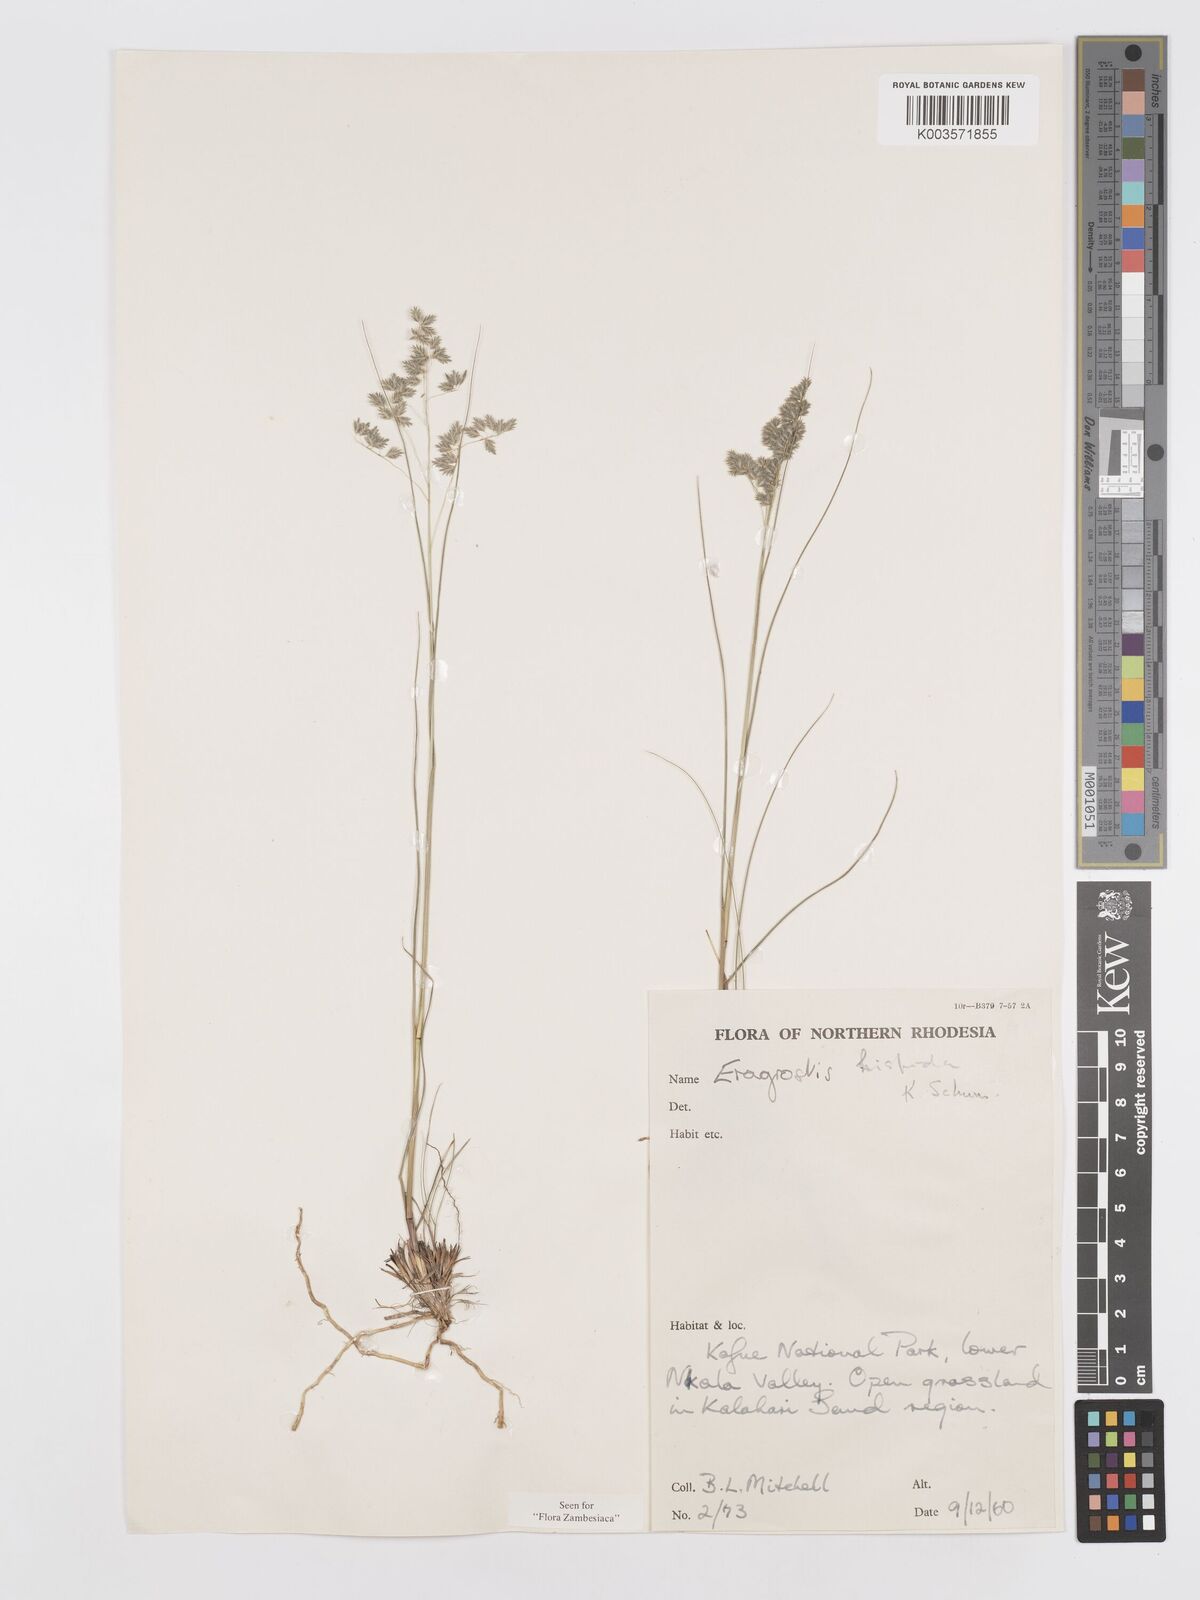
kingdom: Plantae
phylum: Tracheophyta
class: Liliopsida
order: Poales
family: Poaceae
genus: Eragrostis
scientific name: Eragrostis hispida
